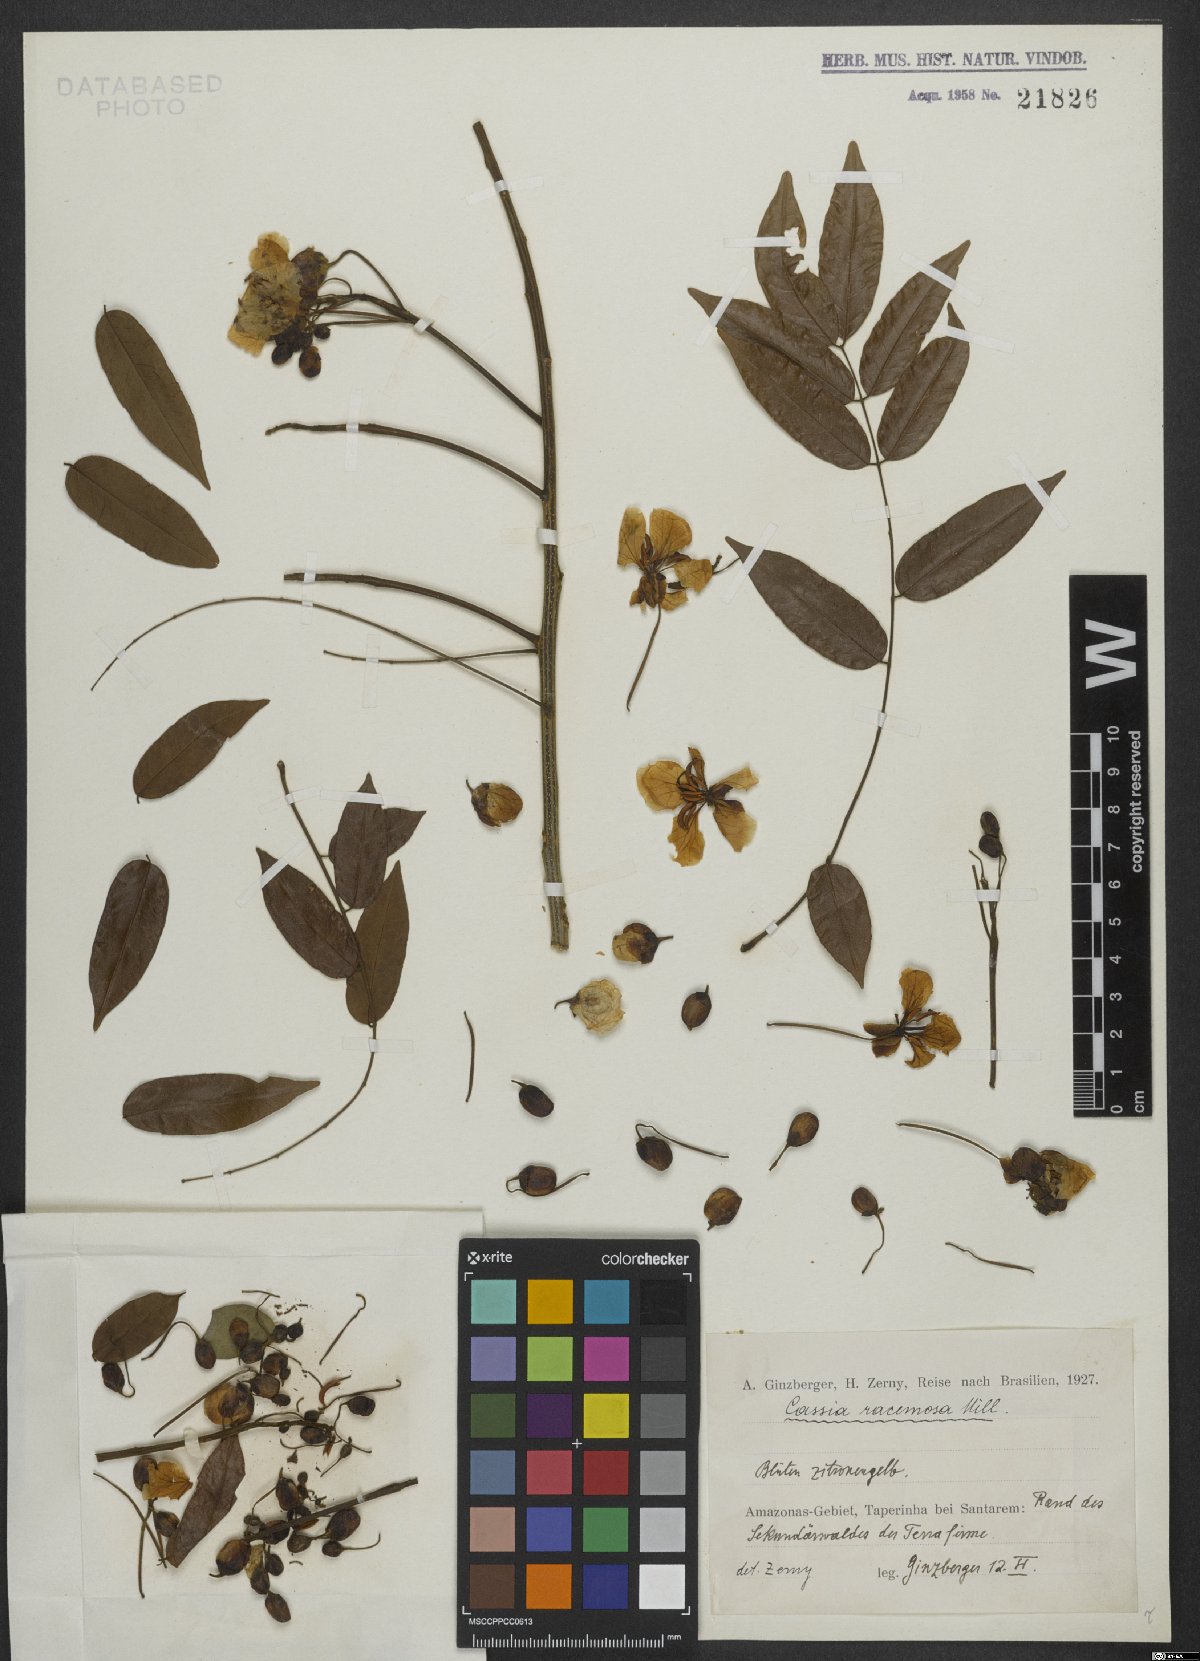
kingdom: Plantae
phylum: Tracheophyta
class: Magnoliopsida
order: Fabales
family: Fabaceae
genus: Senna
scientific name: Senna racemosa
